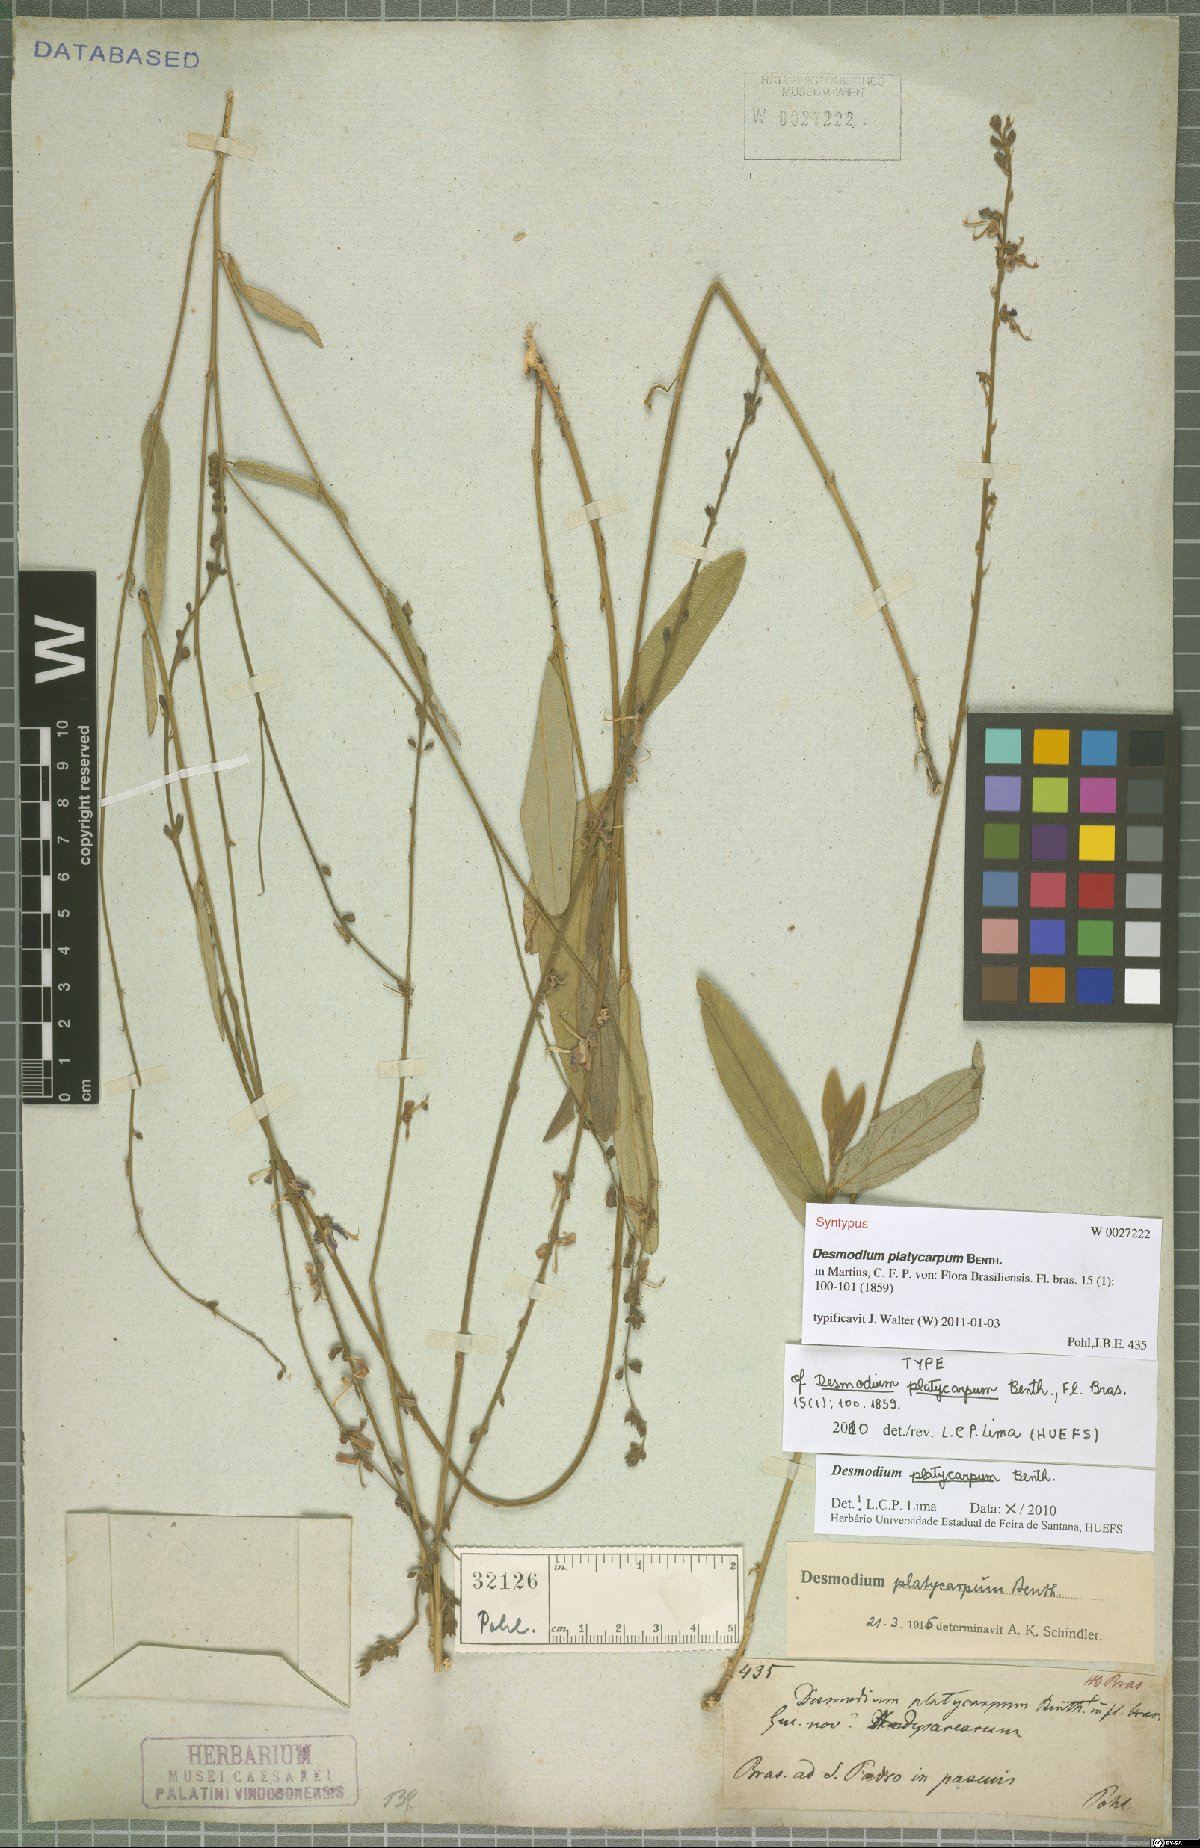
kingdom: Plantae
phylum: Tracheophyta
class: Magnoliopsida
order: Fabales
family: Fabaceae
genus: Desmodium
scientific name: Desmodium platycarpum
